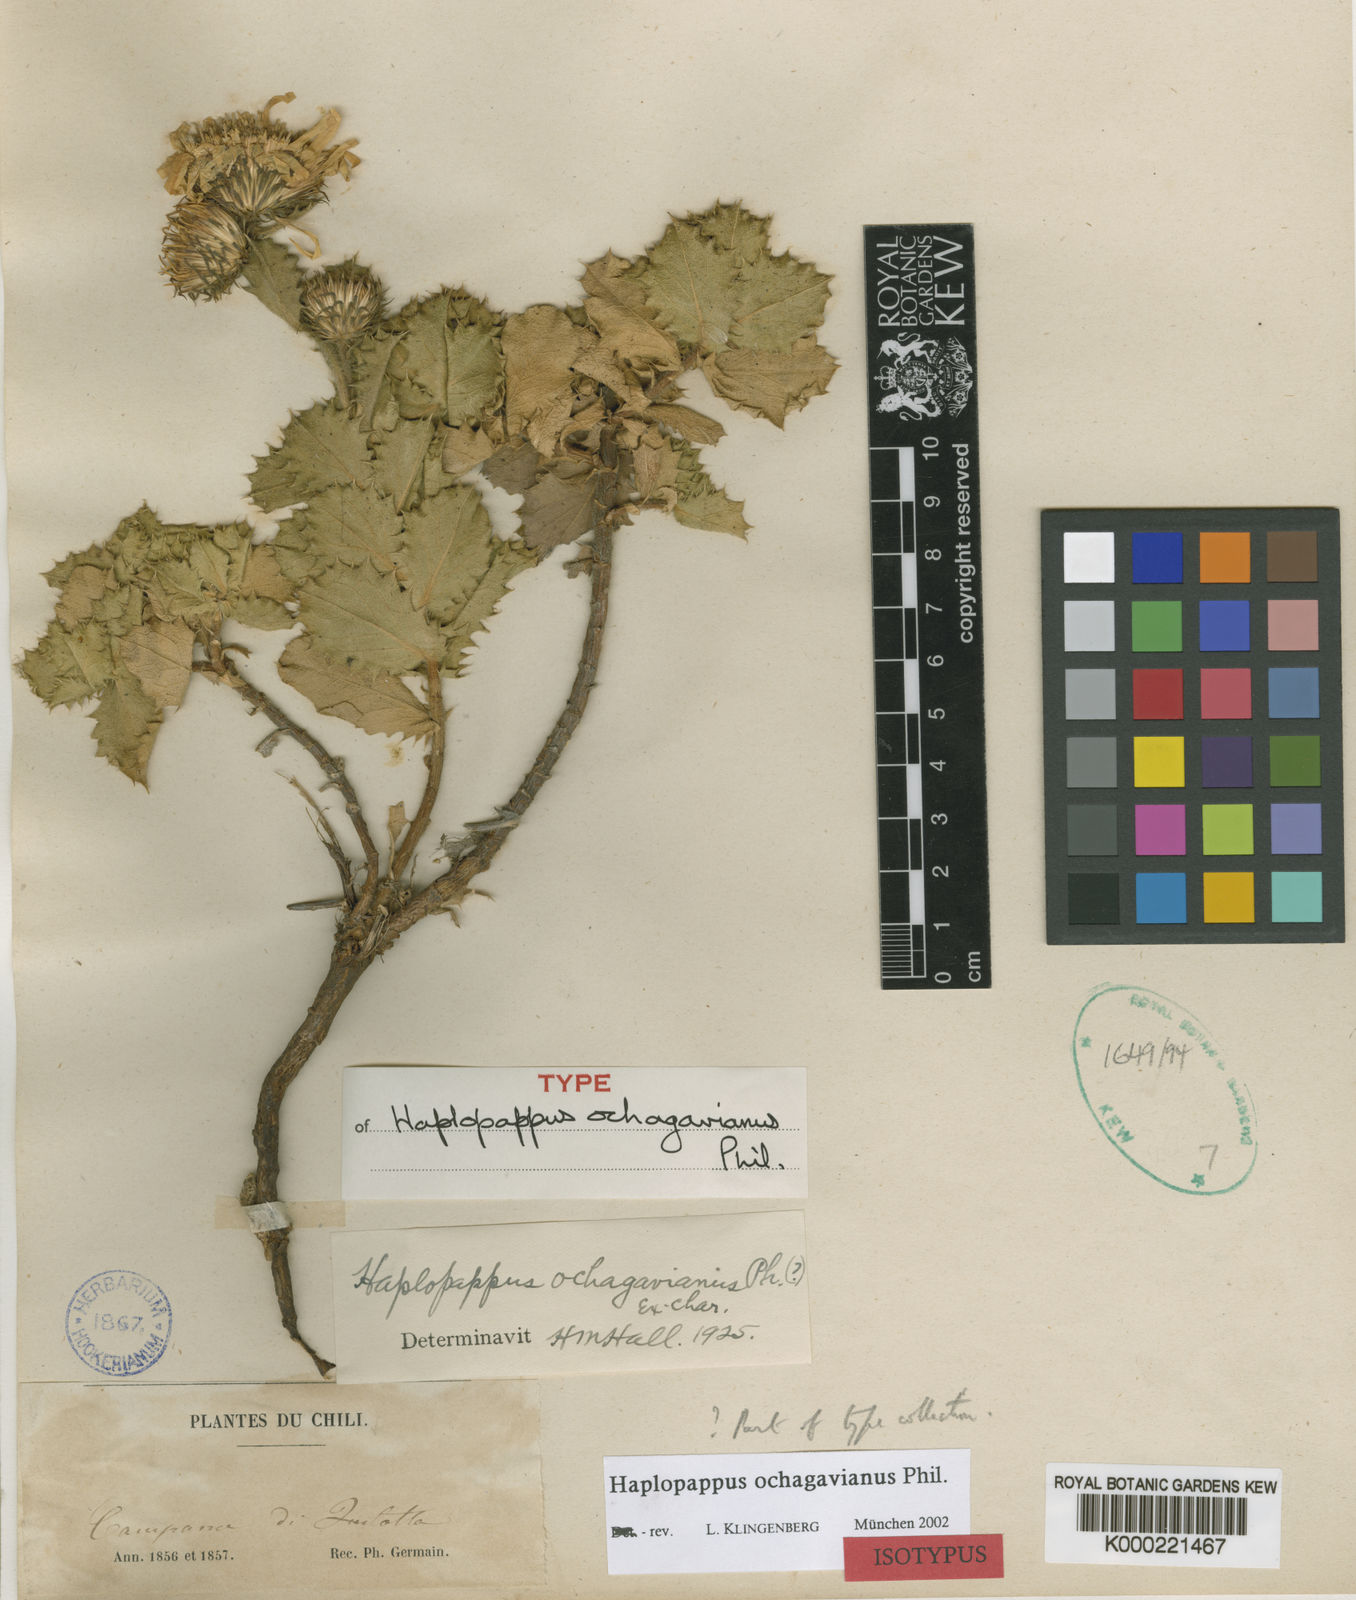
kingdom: Plantae
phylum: Tracheophyta
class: Magnoliopsida
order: Asterales
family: Asteraceae
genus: Haplopappus
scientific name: Haplopappus ochagavianus
